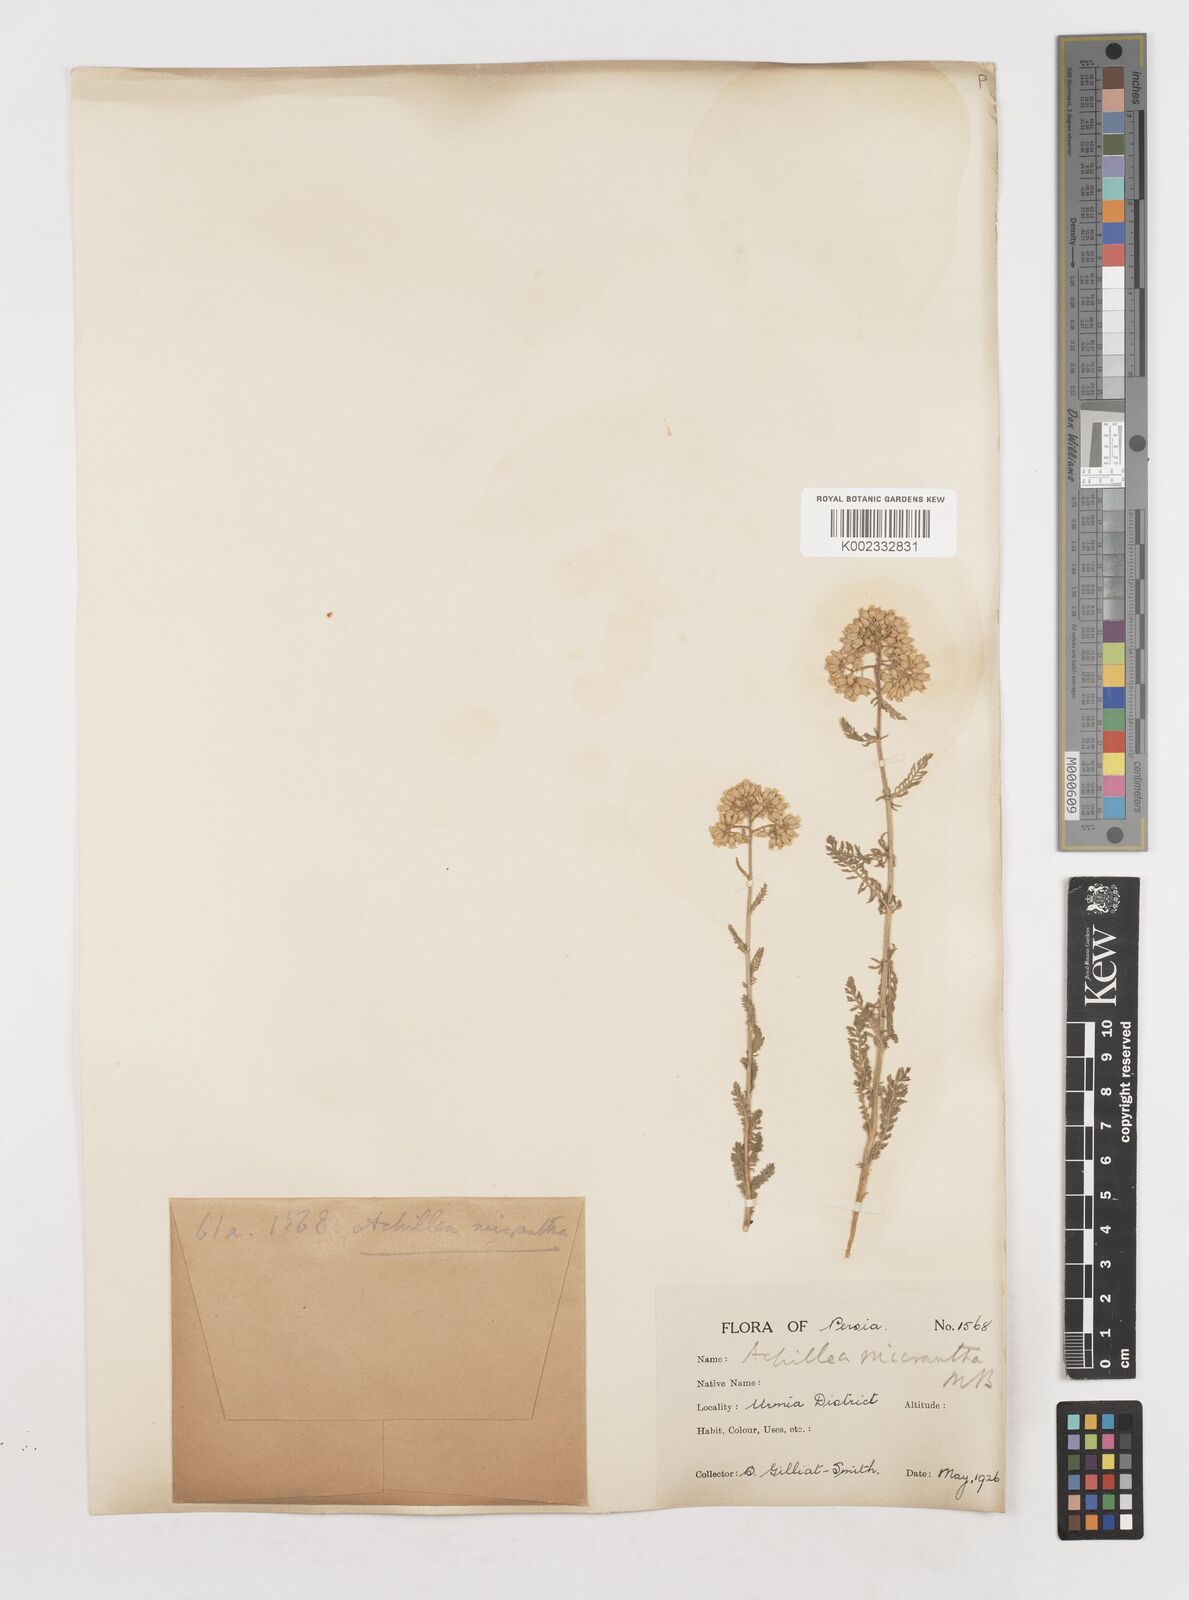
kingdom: Plantae
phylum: Tracheophyta
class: Magnoliopsida
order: Asterales
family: Asteraceae
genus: Achillea
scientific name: Achillea arabica
